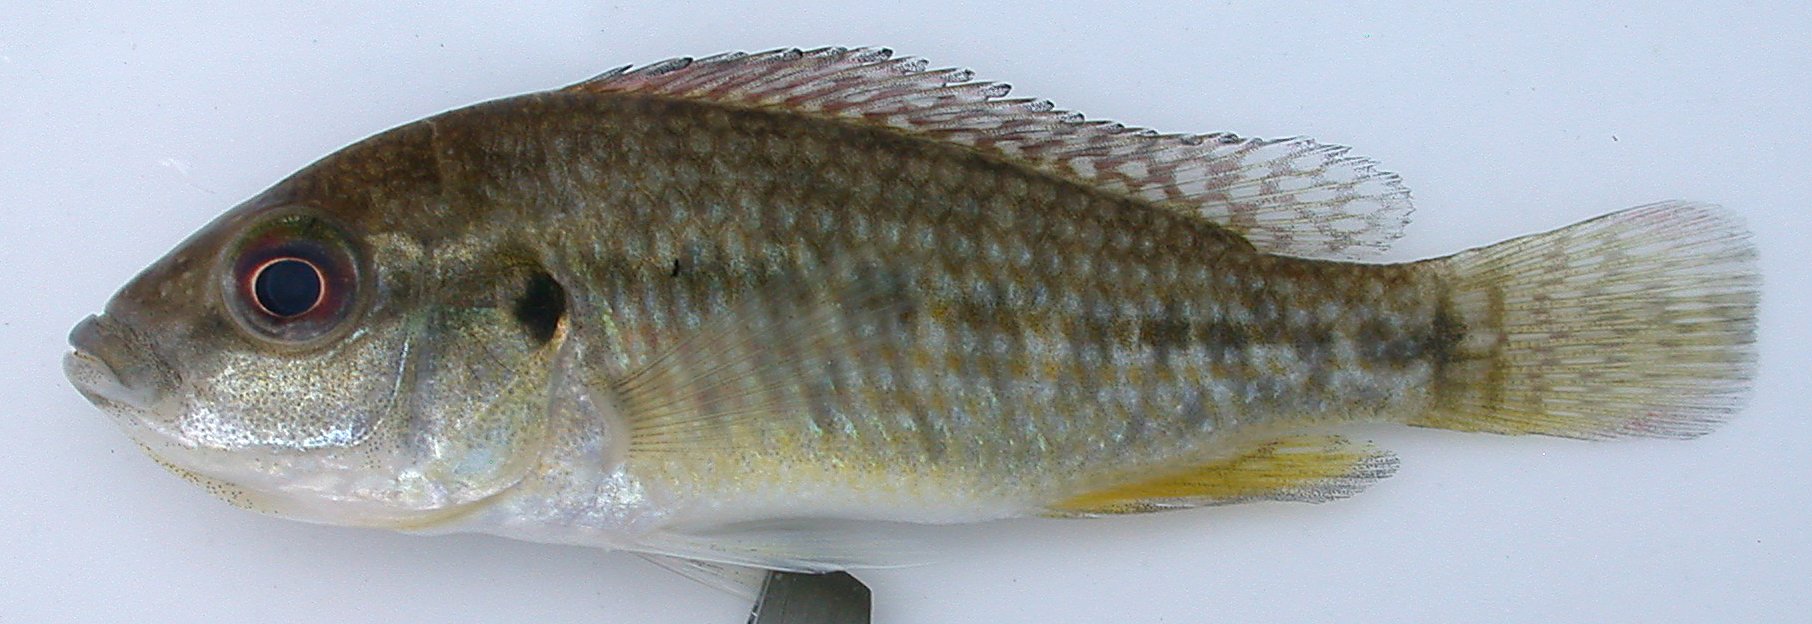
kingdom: Animalia
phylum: Chordata
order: Perciformes
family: Cichlidae
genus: Pseudocrenilabrus
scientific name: Pseudocrenilabrus
